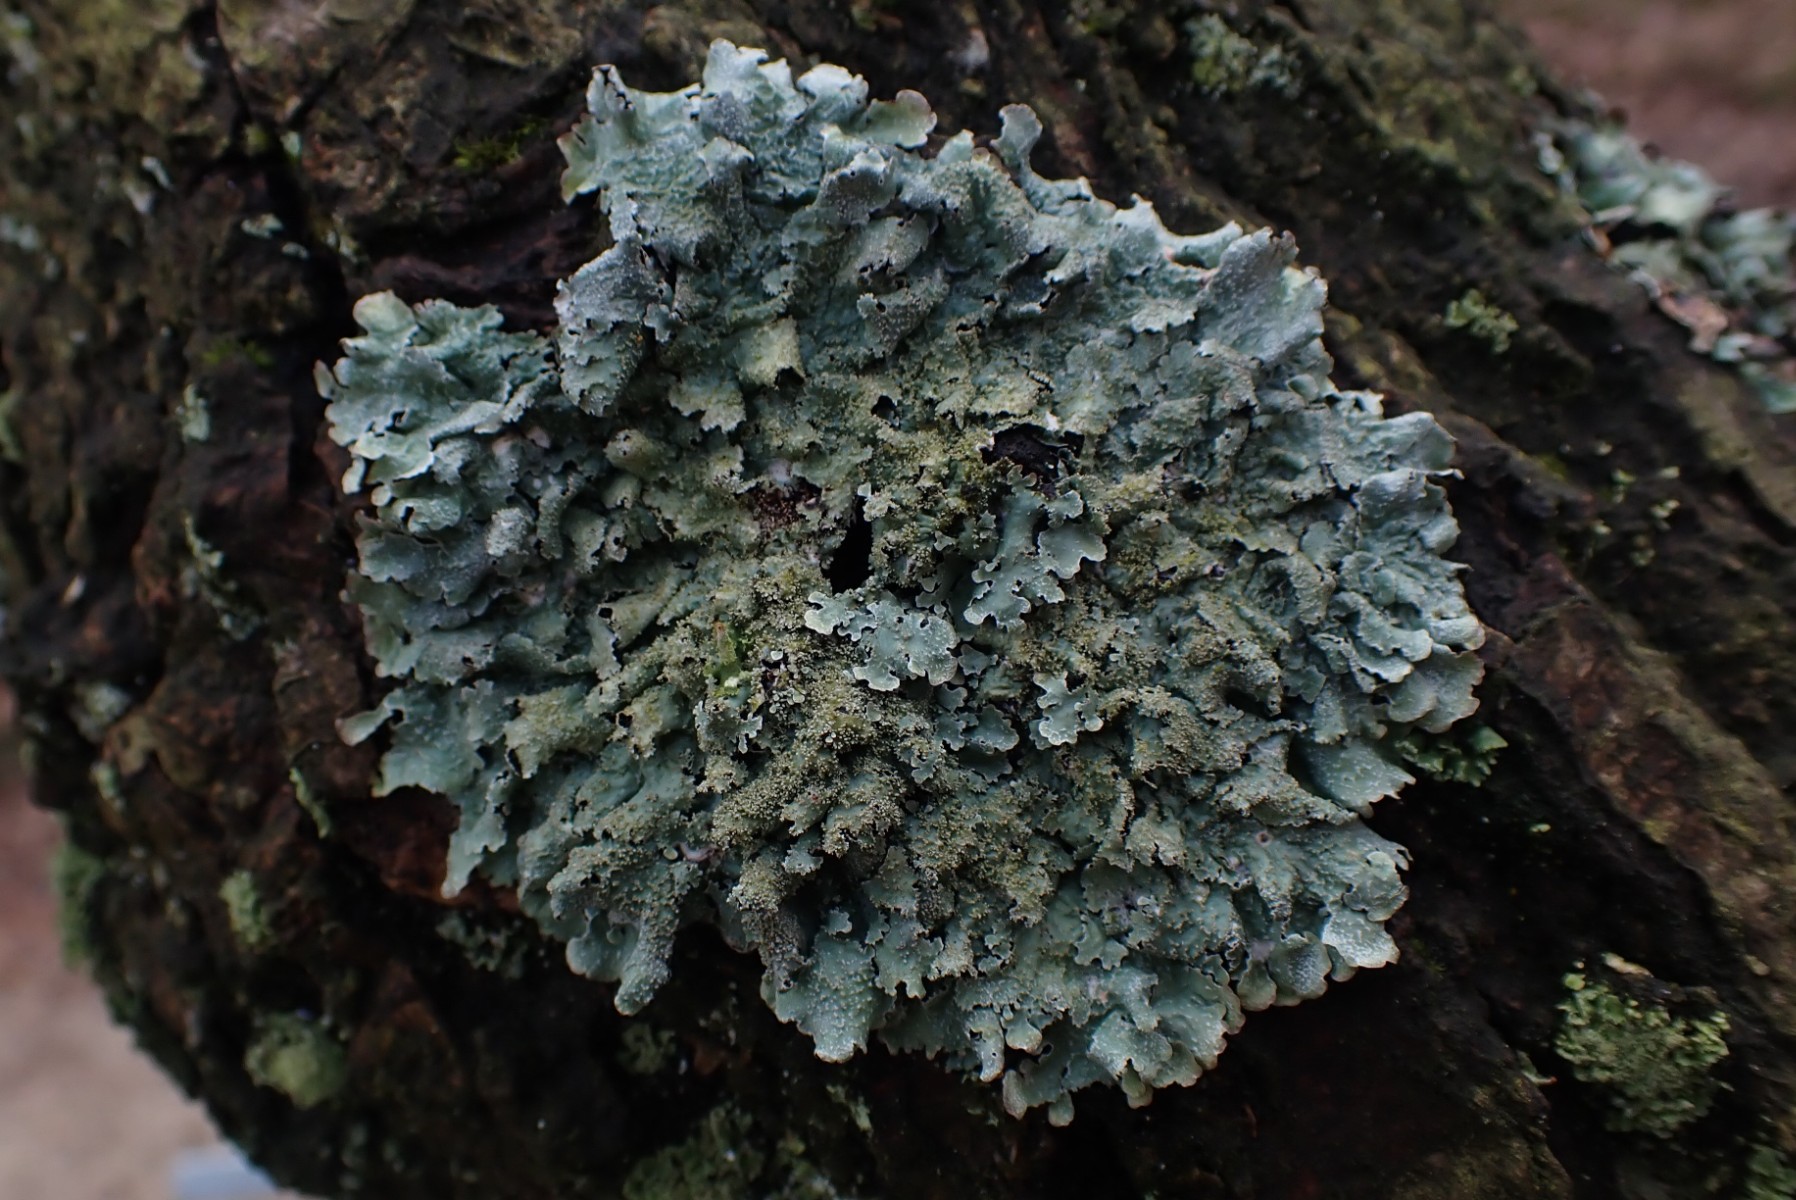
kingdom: Fungi
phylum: Ascomycota
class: Lecanoromycetes
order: Lecanorales
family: Parmeliaceae
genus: Parmelia
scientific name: Parmelia
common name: farve-skållav
